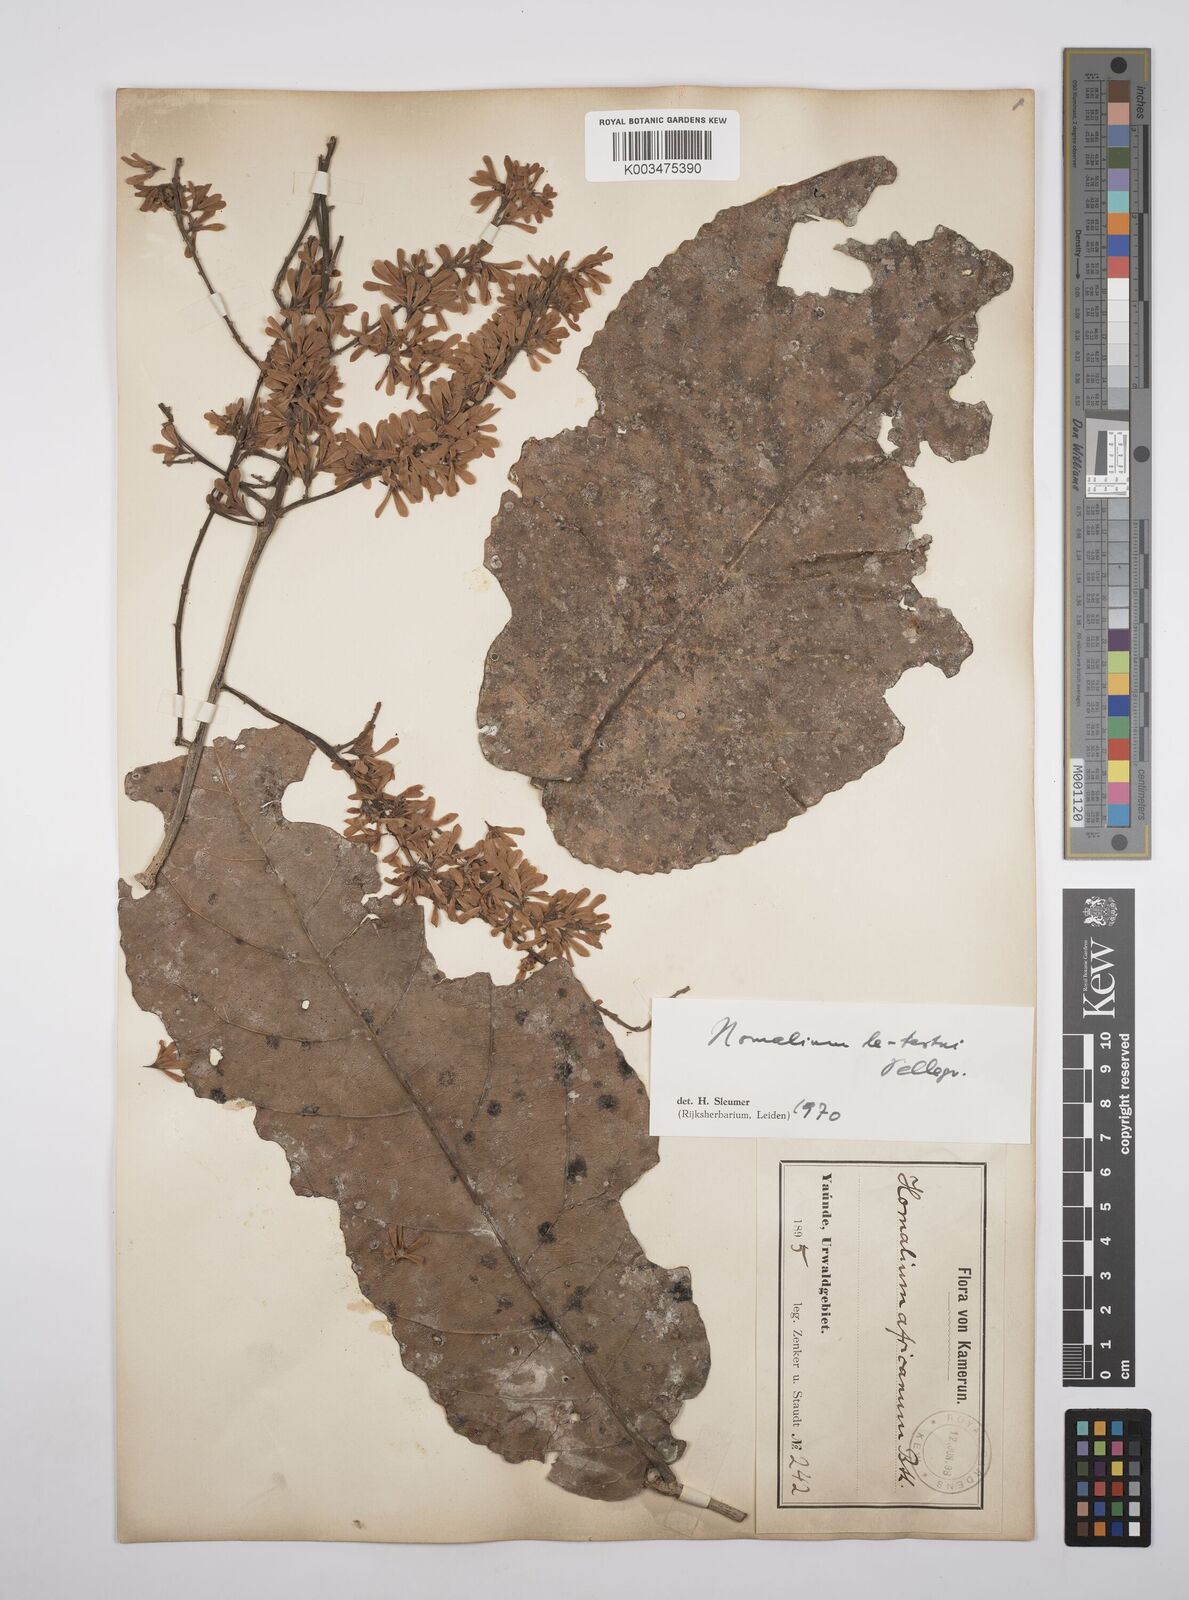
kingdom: Plantae
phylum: Tracheophyta
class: Magnoliopsida
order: Malpighiales
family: Salicaceae
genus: Homalium
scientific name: Homalium letestui
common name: African homalium
